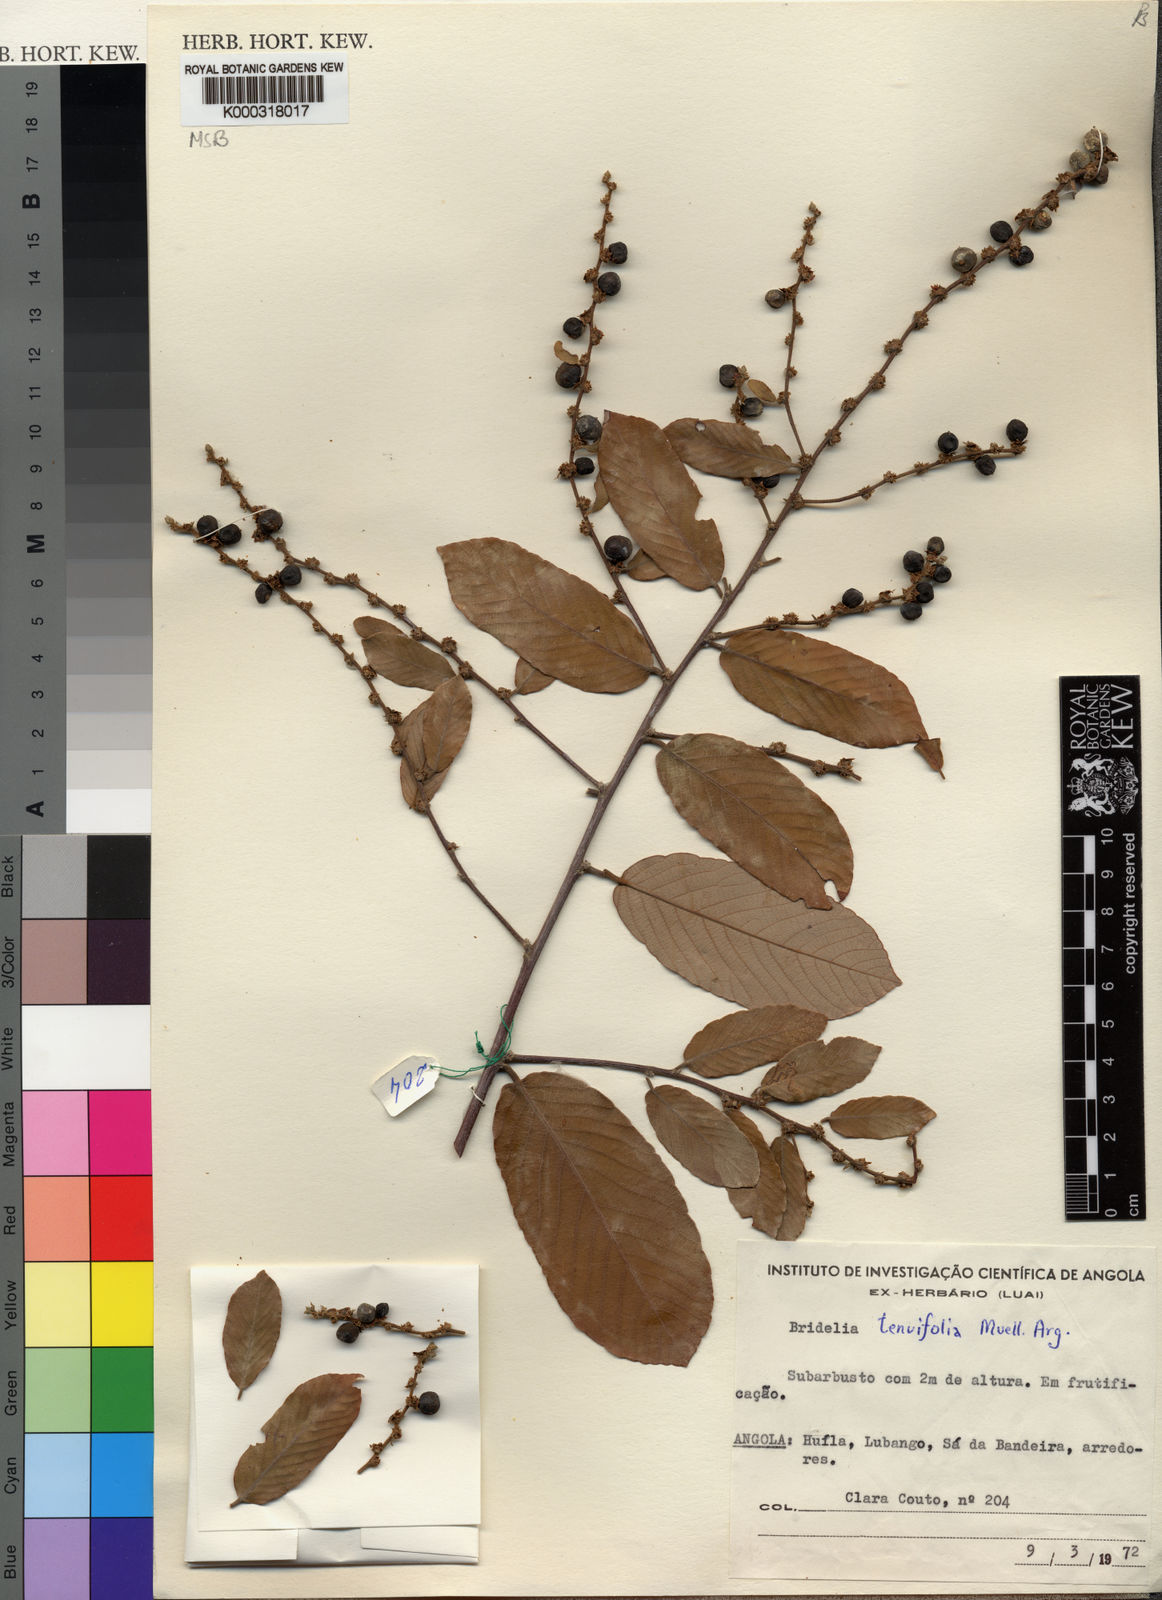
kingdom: Plantae
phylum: Tracheophyta
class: Magnoliopsida
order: Malpighiales
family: Phyllanthaceae
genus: Bridelia
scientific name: Bridelia
